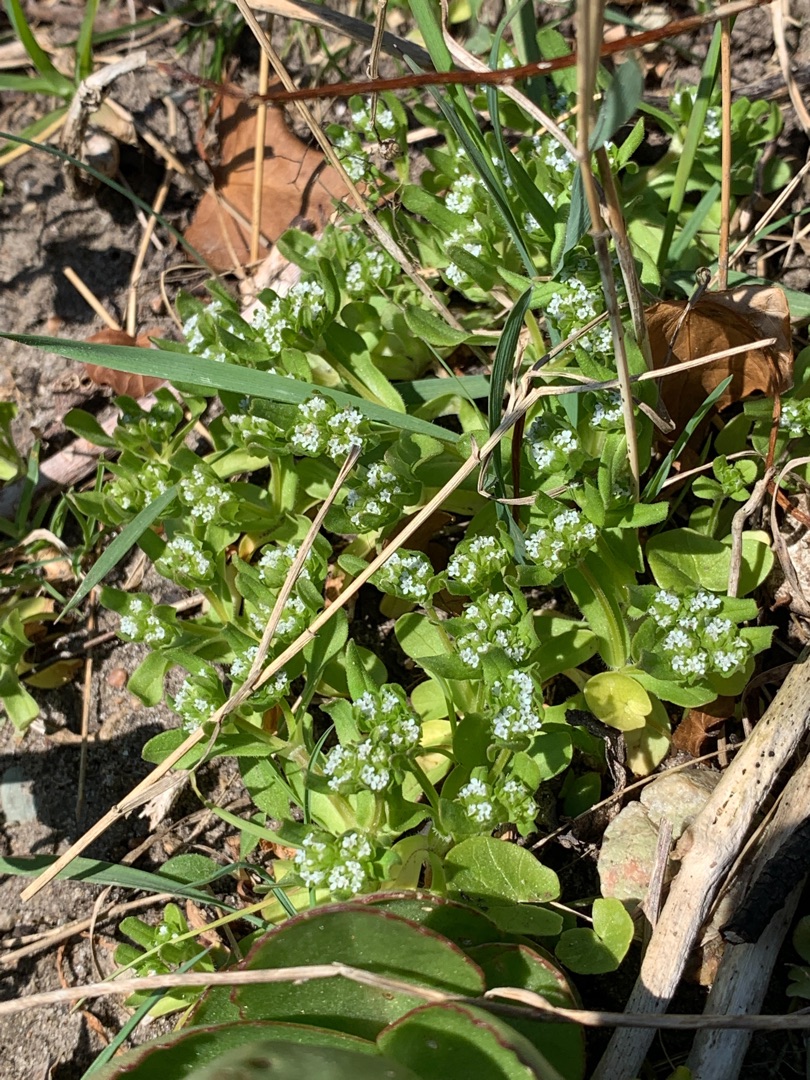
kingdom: Plantae
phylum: Tracheophyta
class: Magnoliopsida
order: Dipsacales
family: Caprifoliaceae
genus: Valerianella
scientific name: Valerianella locusta
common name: Tandfri vårsalat
